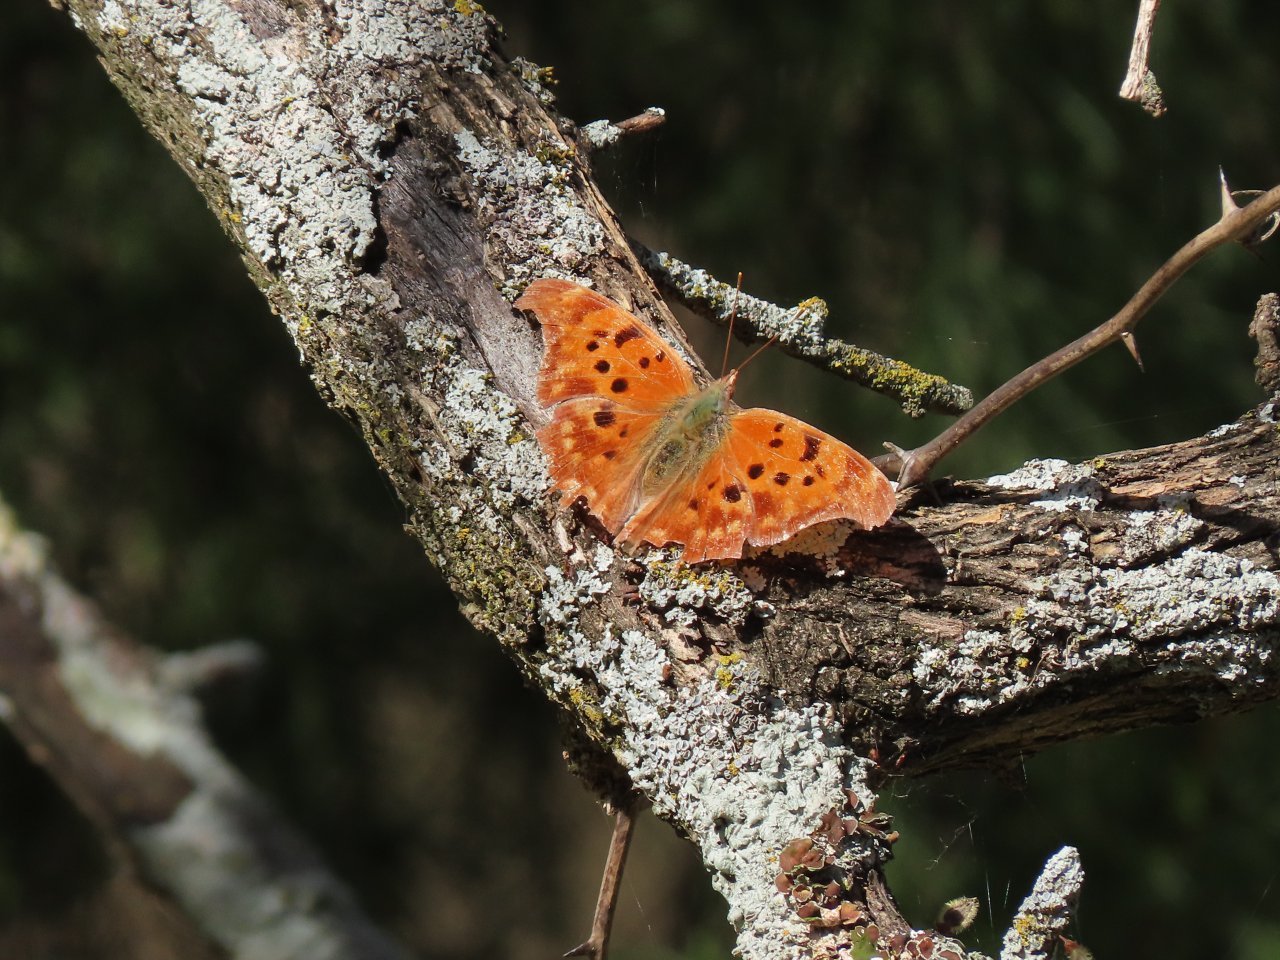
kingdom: Animalia
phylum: Arthropoda
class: Insecta
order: Lepidoptera
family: Nymphalidae
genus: Polygonia
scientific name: Polygonia interrogationis
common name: Question Mark
